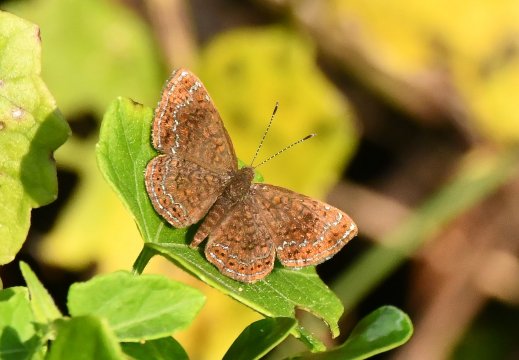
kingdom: Animalia
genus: Calephelis
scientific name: Calephelis
